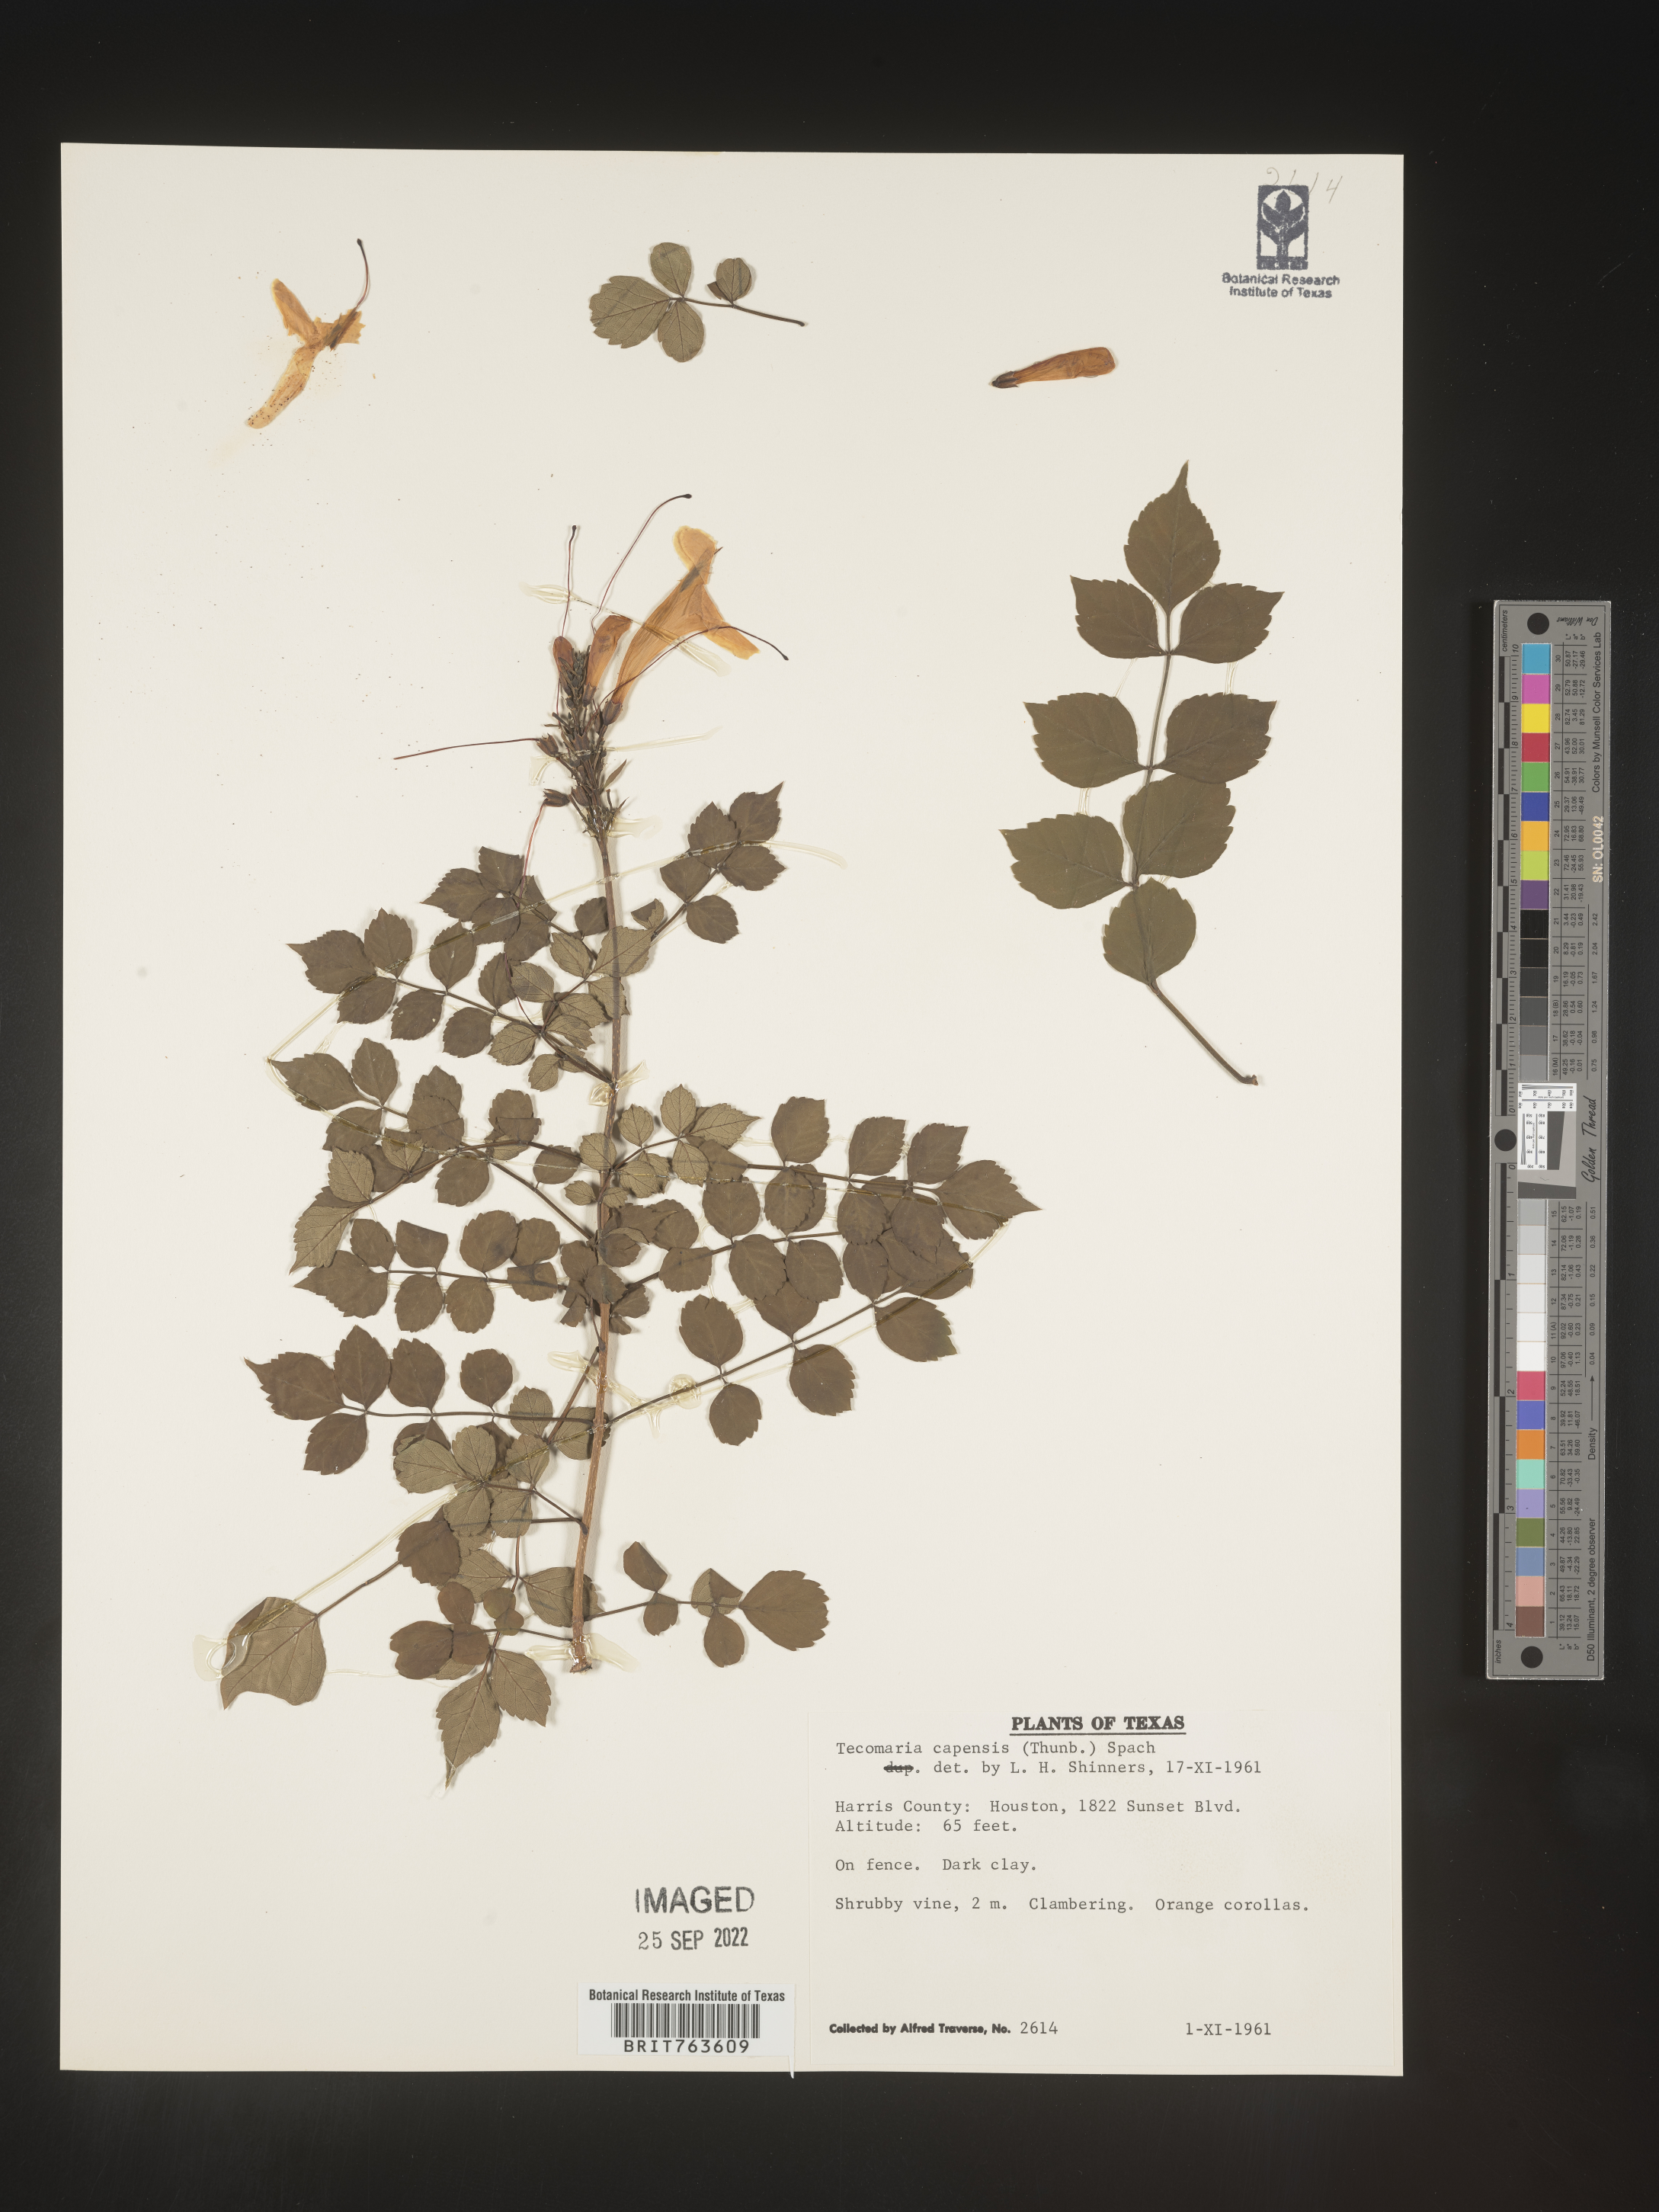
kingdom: Plantae
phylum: Tracheophyta
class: Magnoliopsida
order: Lamiales
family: Bignoniaceae
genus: Tecomaria
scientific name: Tecomaria
